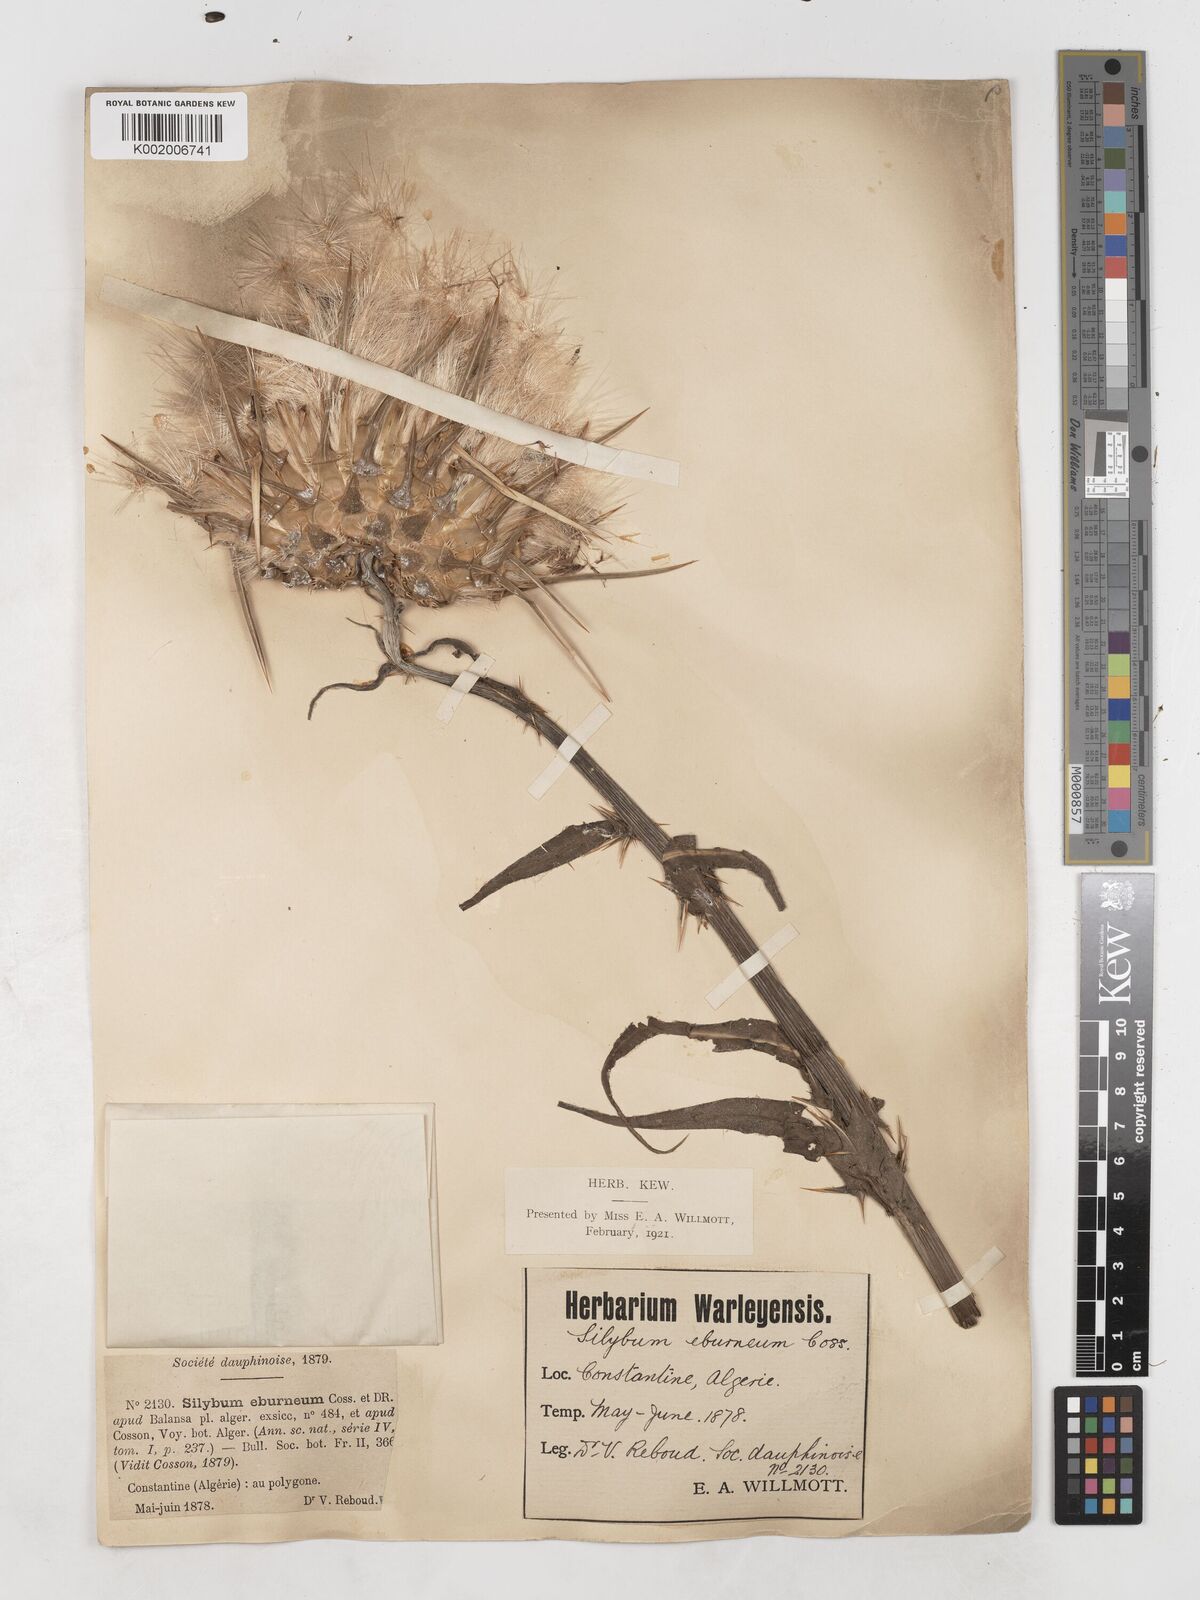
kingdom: Plantae
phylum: Tracheophyta
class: Magnoliopsida
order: Asterales
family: Asteraceae
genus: Silybum
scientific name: Silybum eburneum
